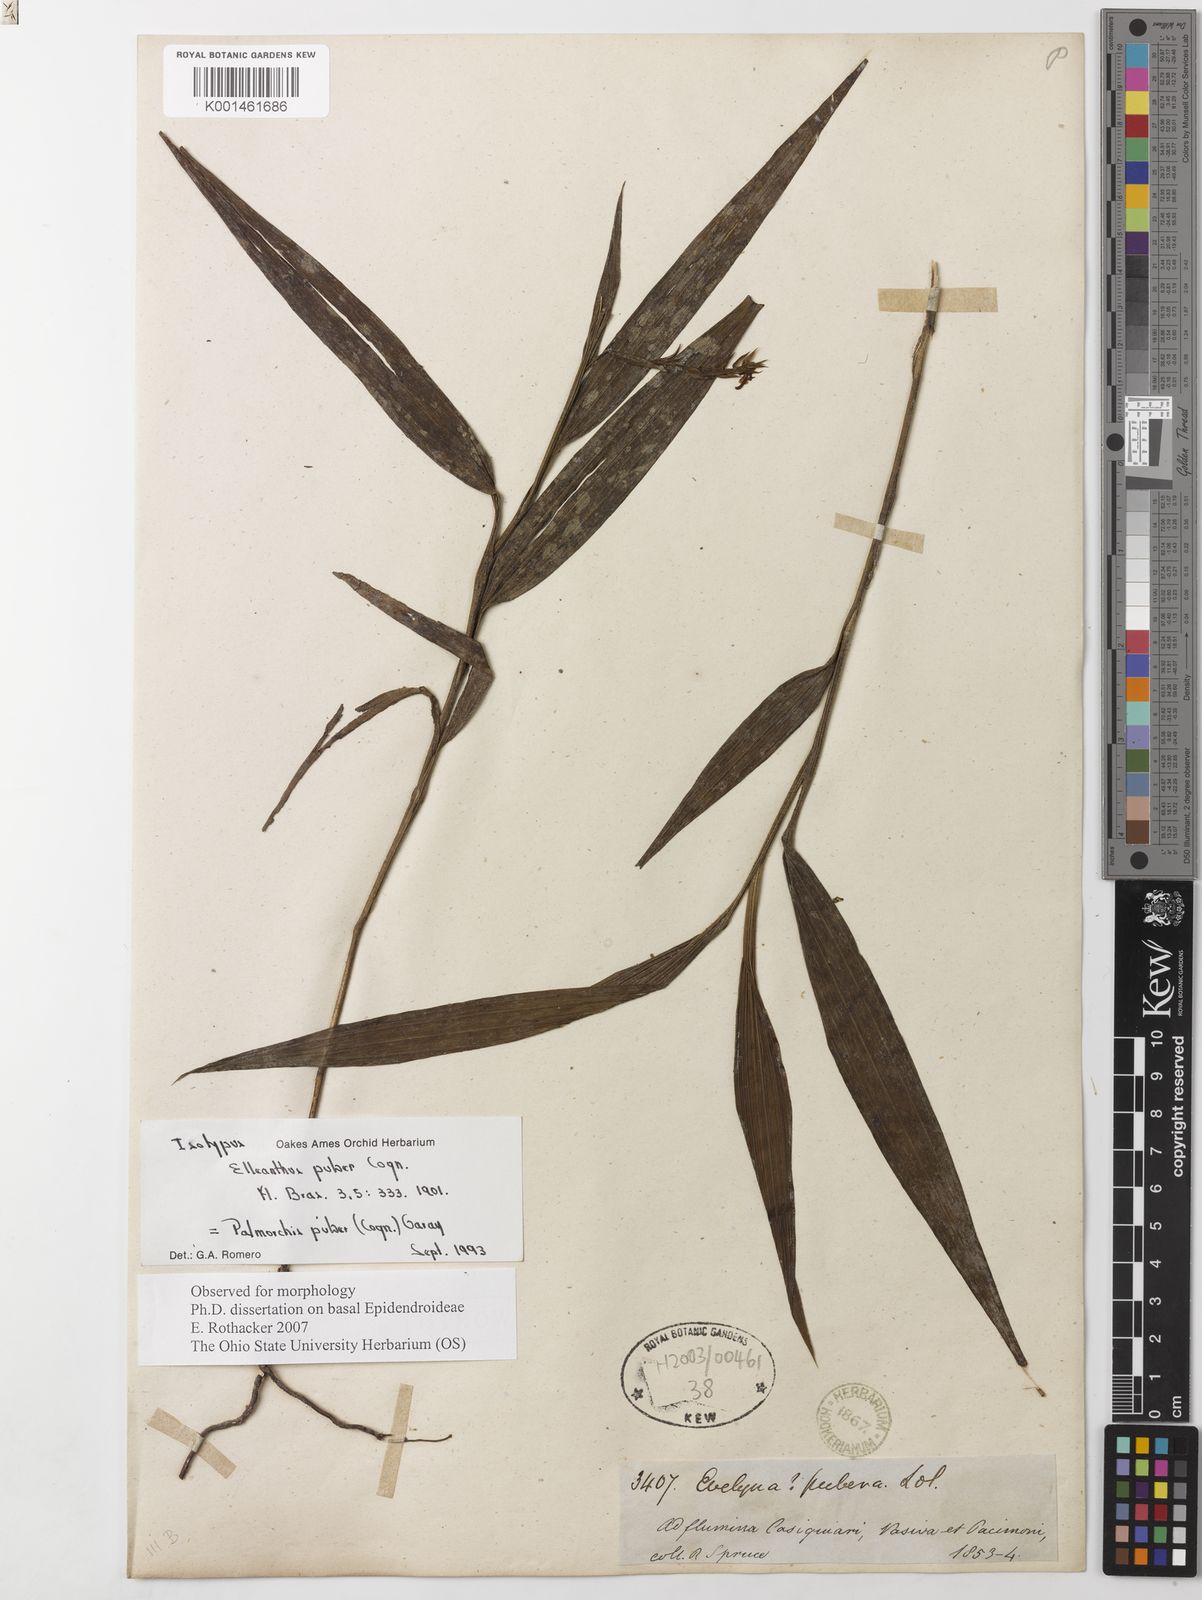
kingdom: Plantae
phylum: Tracheophyta
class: Liliopsida
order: Asparagales
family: Orchidaceae
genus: Palmorchis
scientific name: Palmorchis puber
